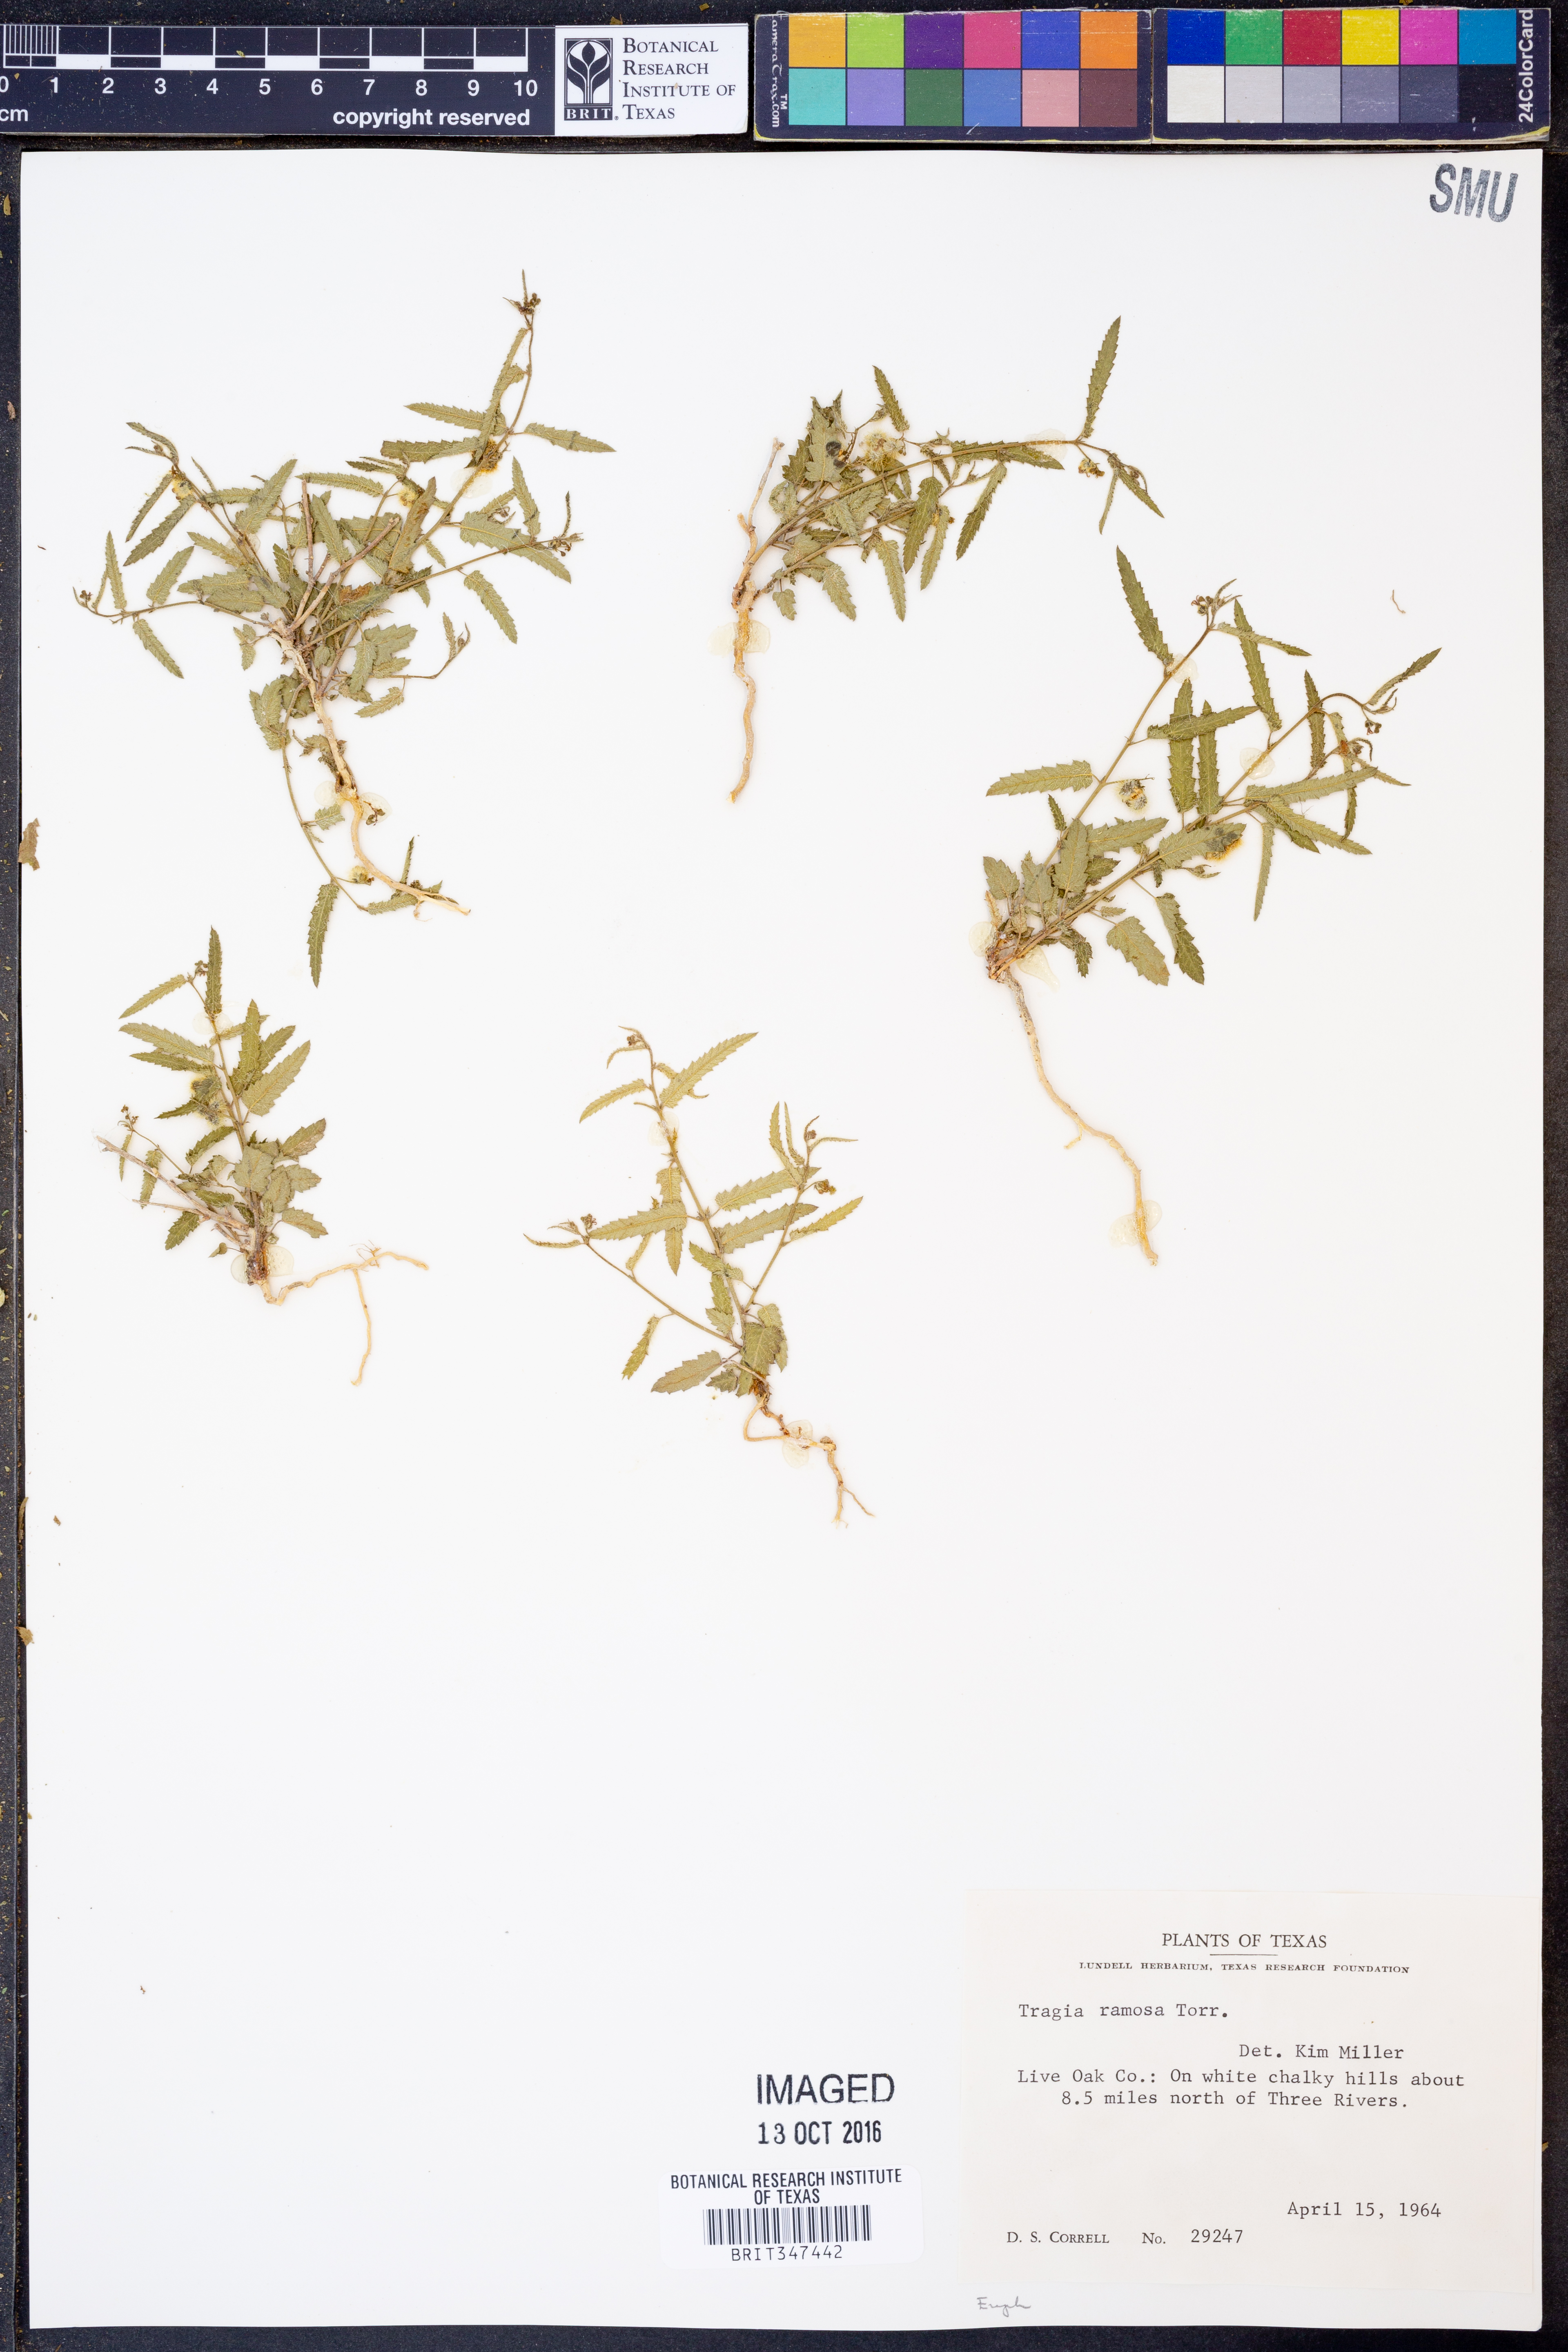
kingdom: Plantae
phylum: Tracheophyta
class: Magnoliopsida
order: Malpighiales
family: Euphorbiaceae
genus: Tragia
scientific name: Tragia ramosa
